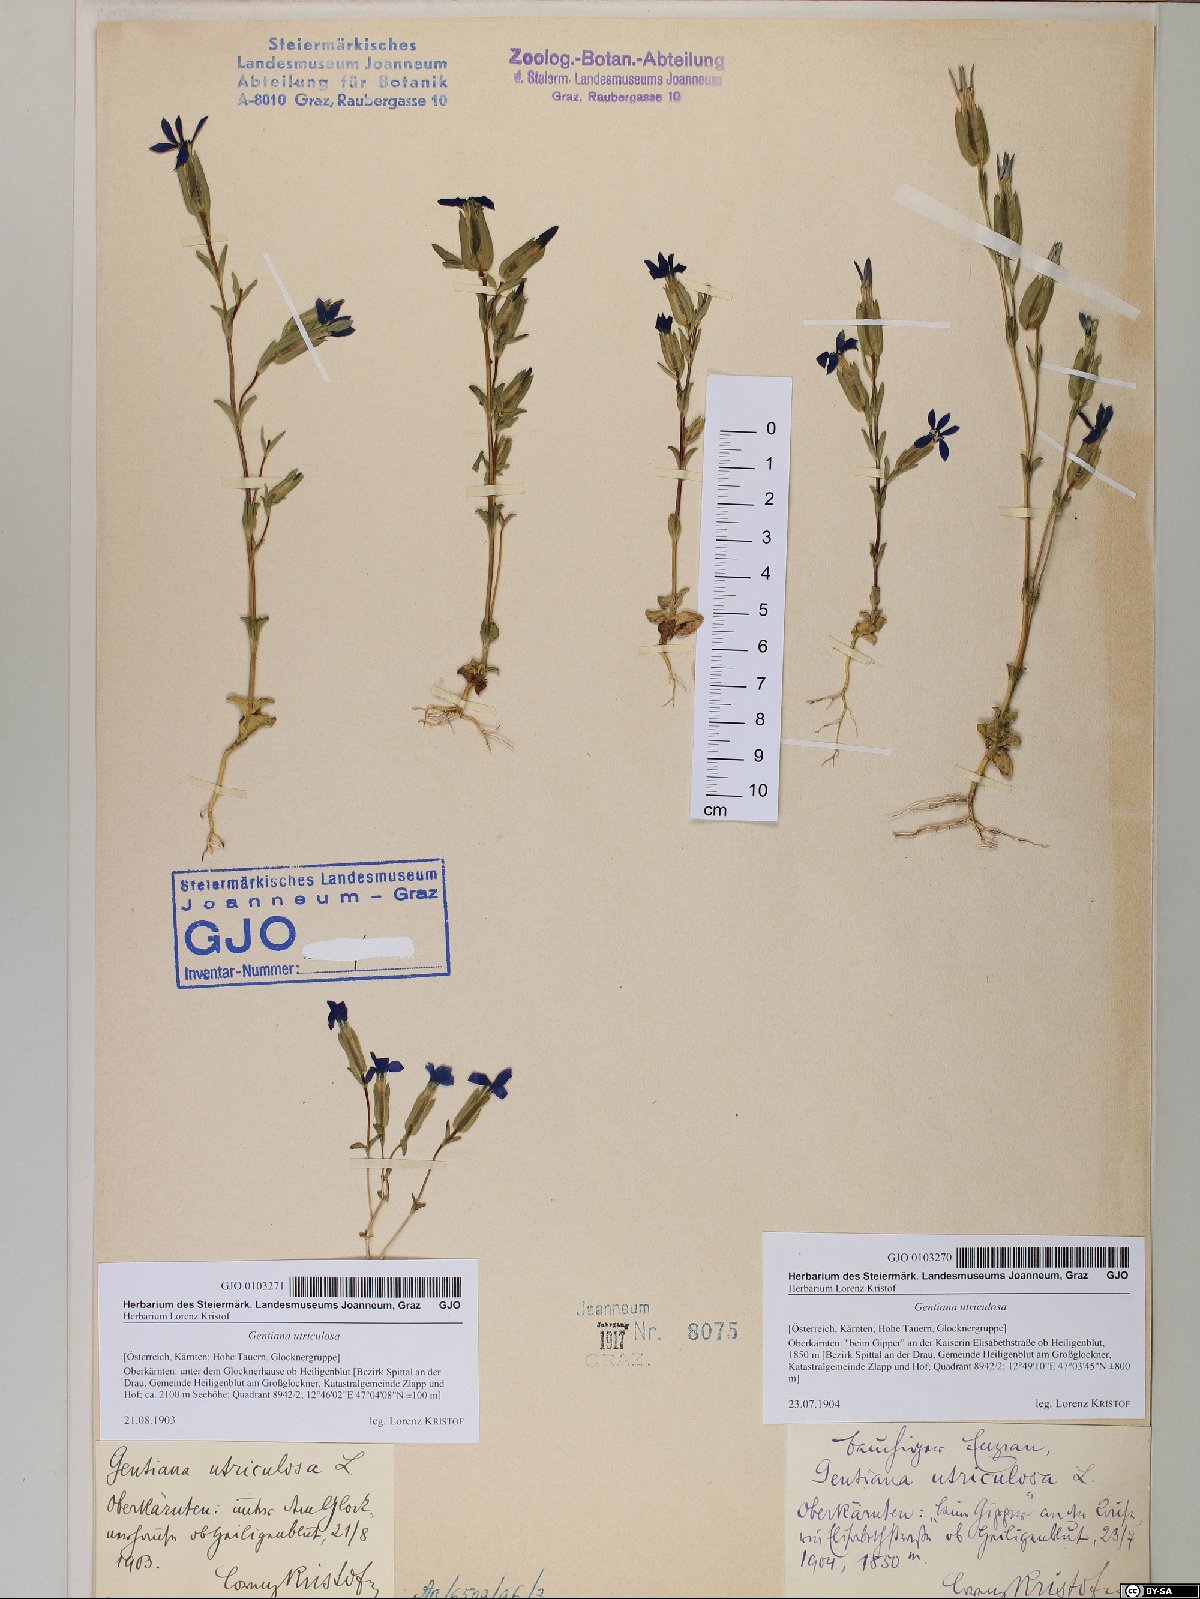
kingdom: Plantae
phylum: Tracheophyta
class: Magnoliopsida
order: Gentianales
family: Gentianaceae
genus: Gentiana
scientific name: Gentiana utriculosa
